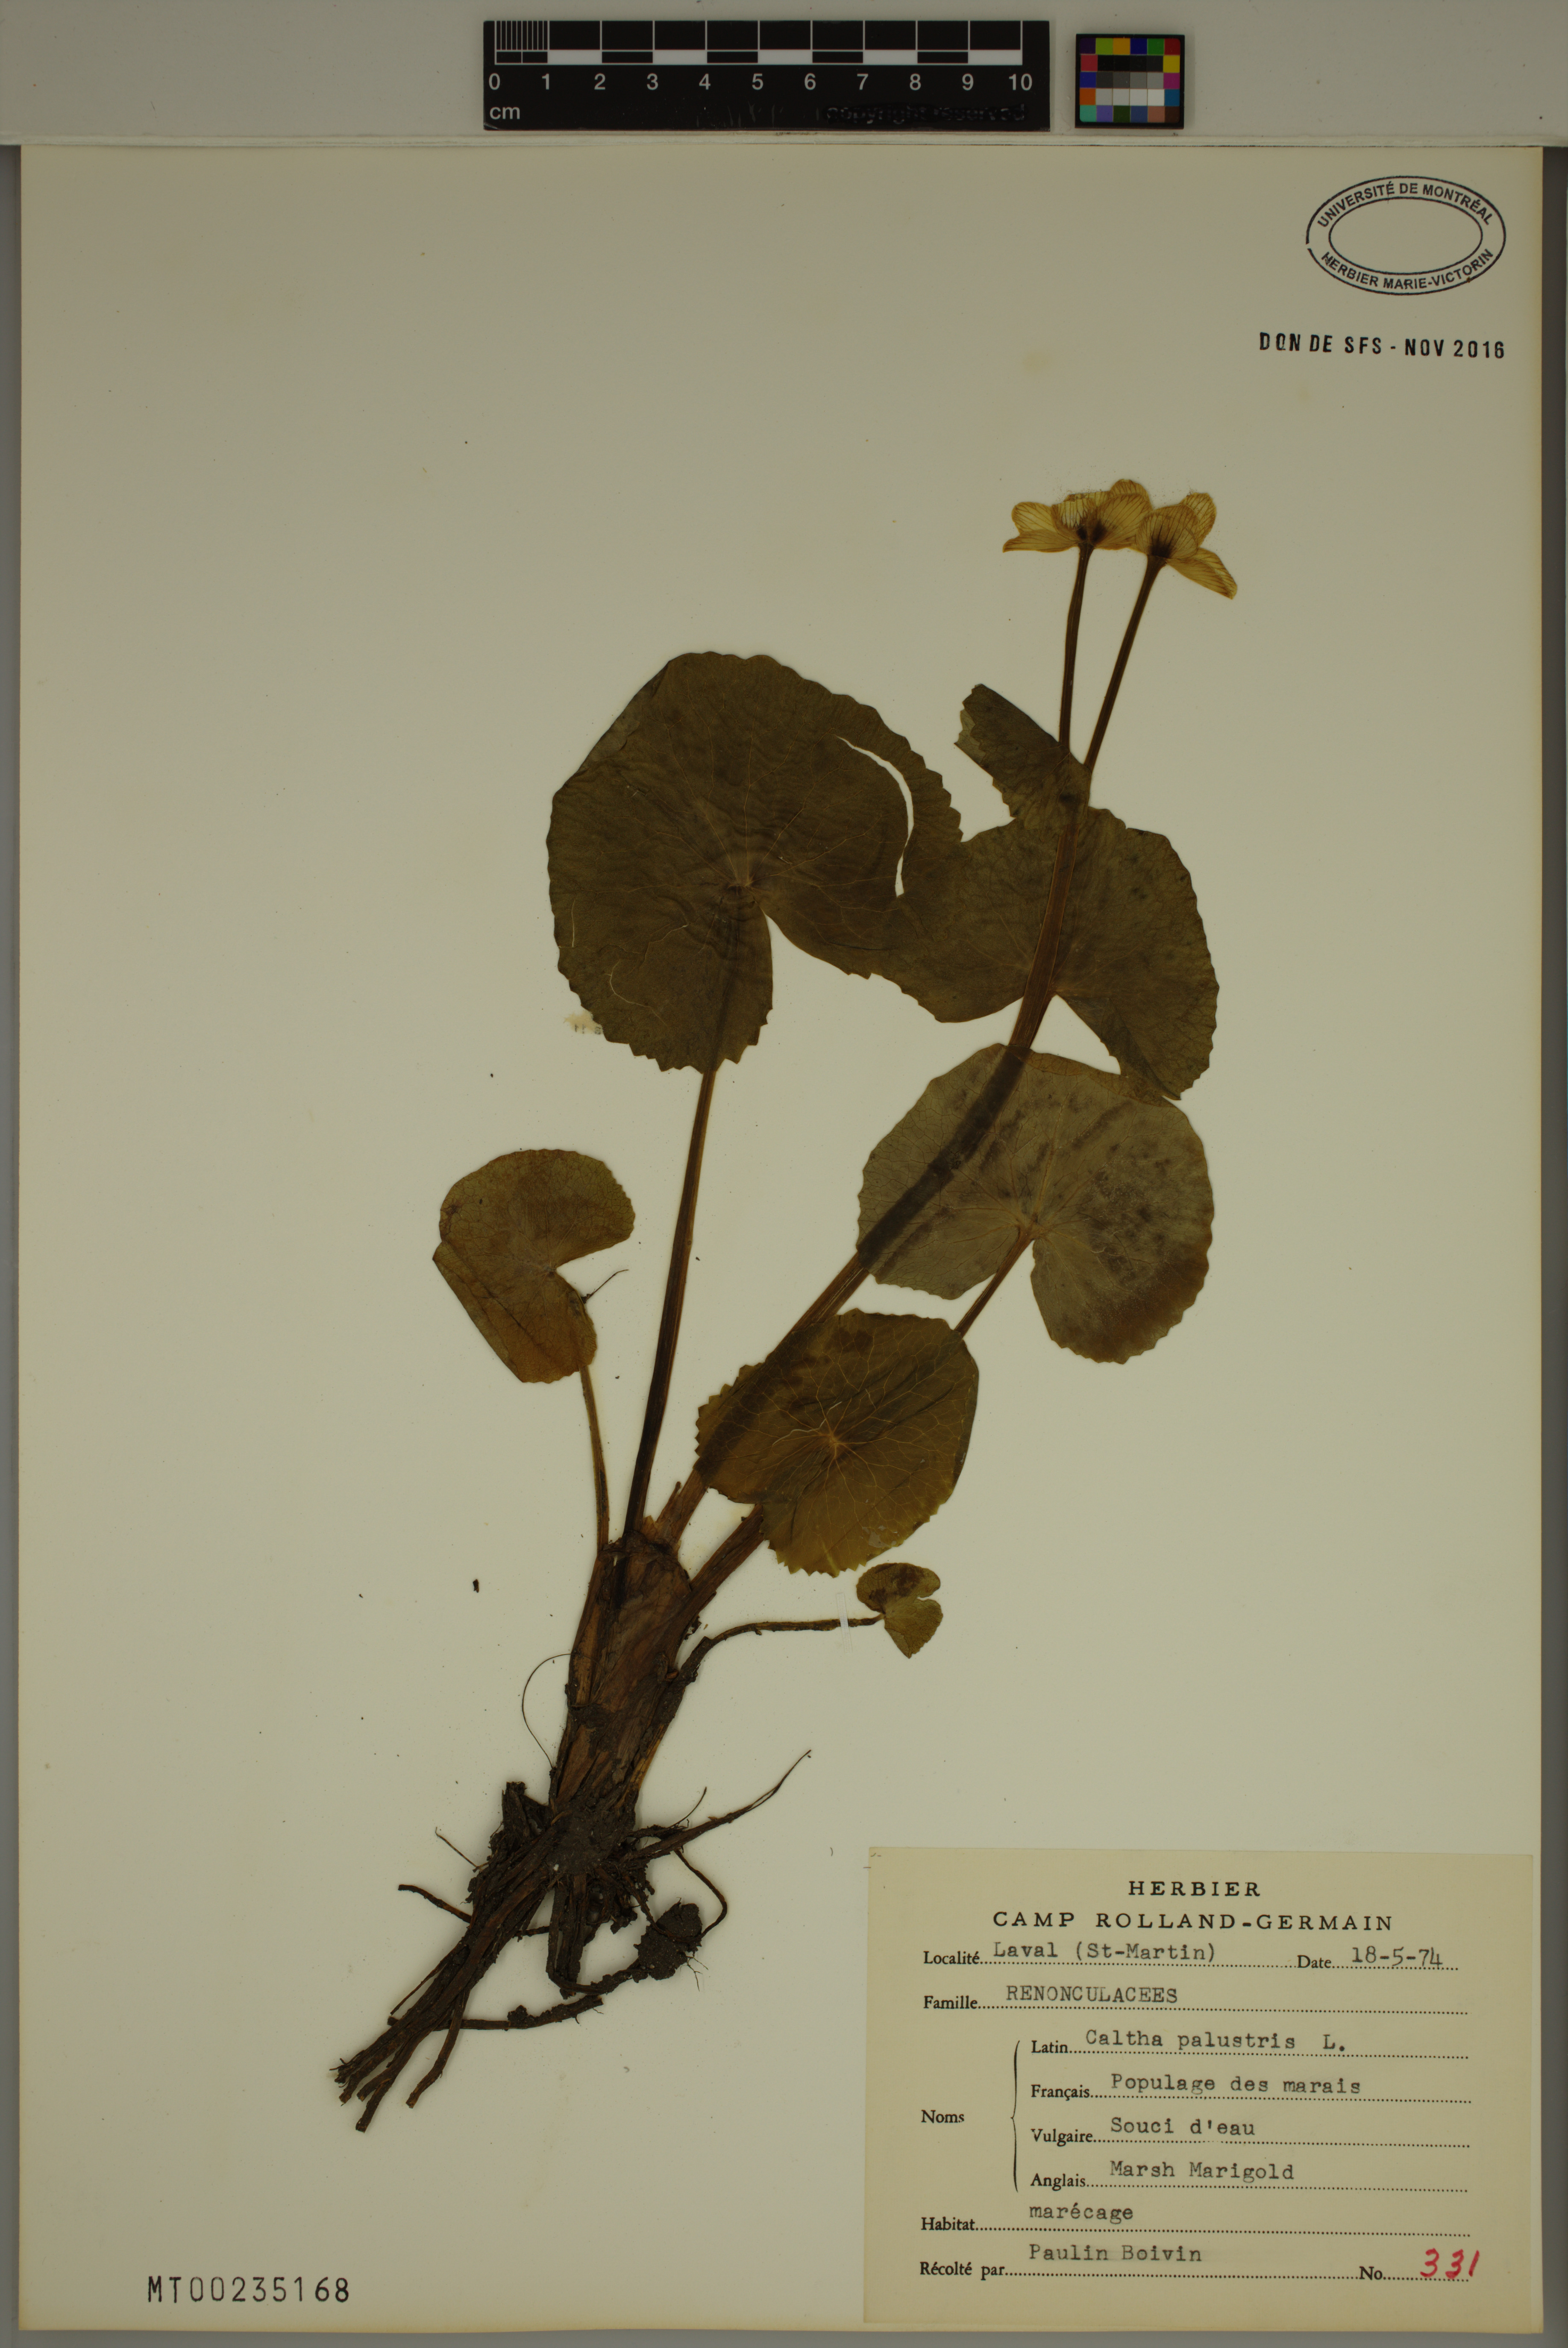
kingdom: Plantae
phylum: Tracheophyta
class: Magnoliopsida
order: Ranunculales
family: Ranunculaceae
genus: Caltha
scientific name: Caltha palustris
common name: Marsh marigold
